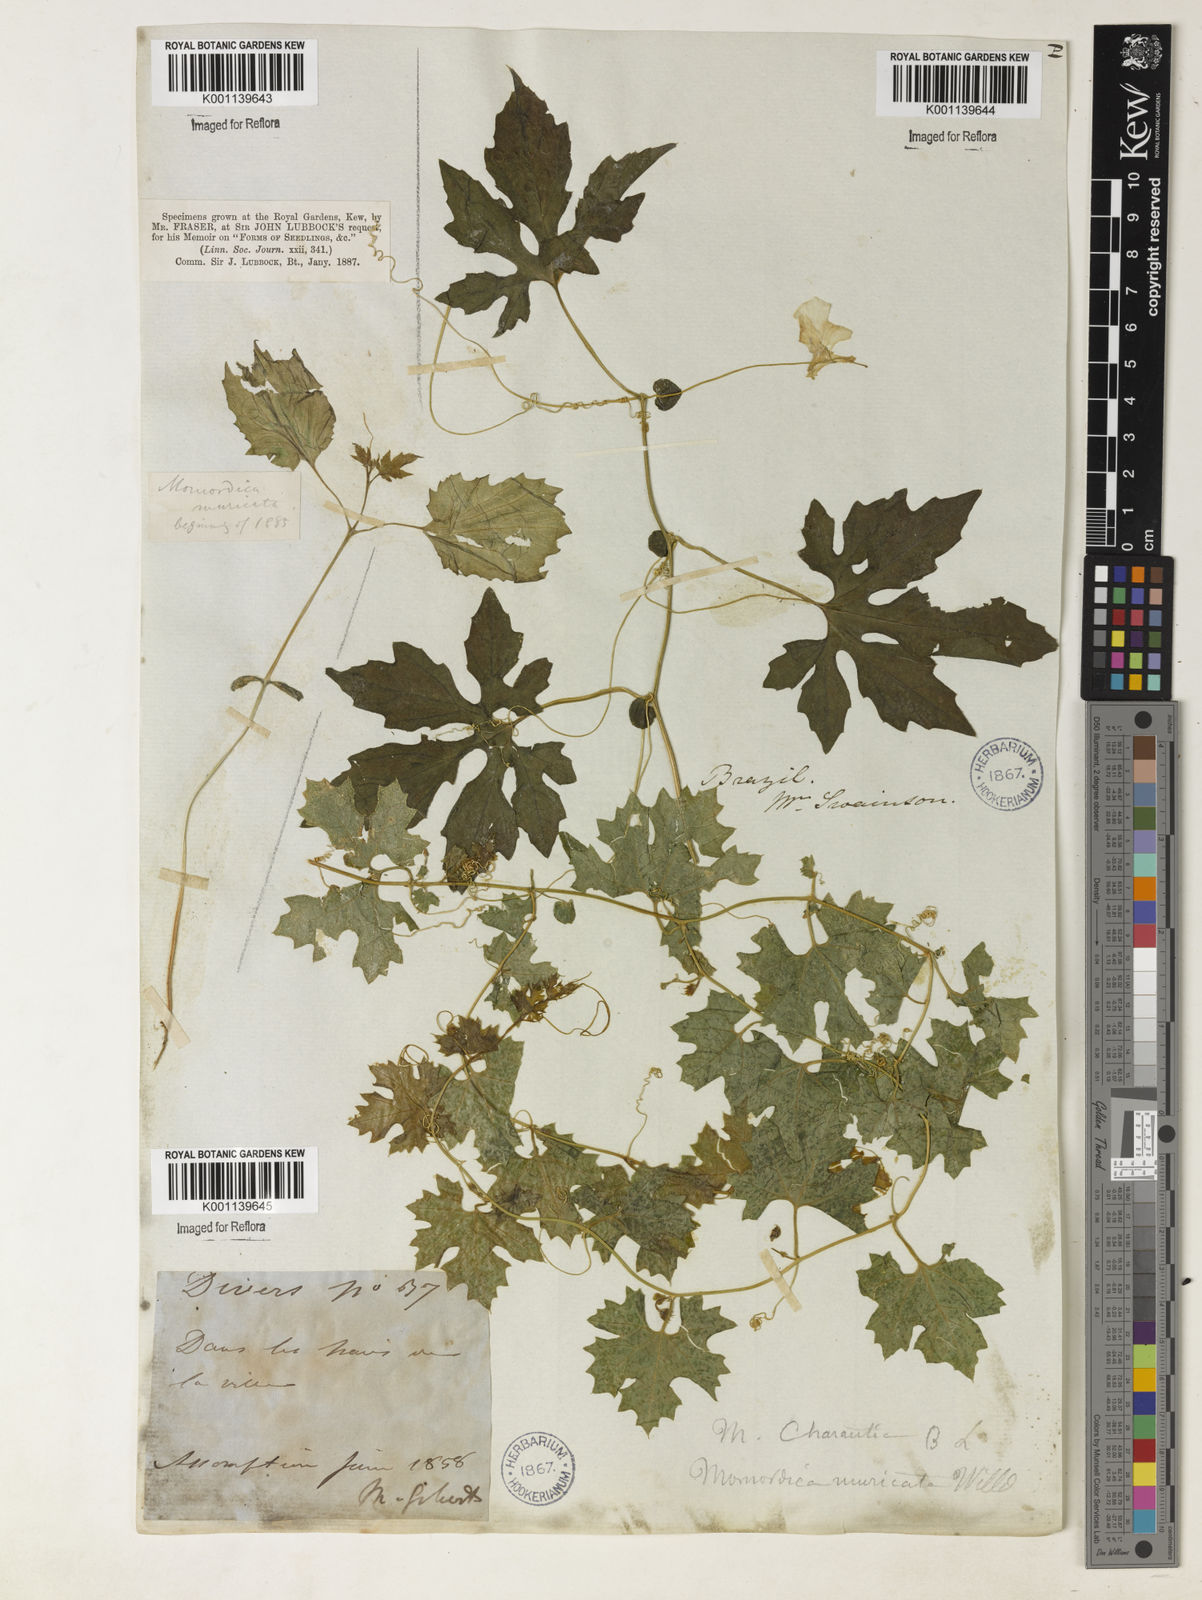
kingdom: Plantae
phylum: Tracheophyta
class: Magnoliopsida
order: Cucurbitales
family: Cucurbitaceae
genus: Momordica
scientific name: Momordica charantia
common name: Balsampear
